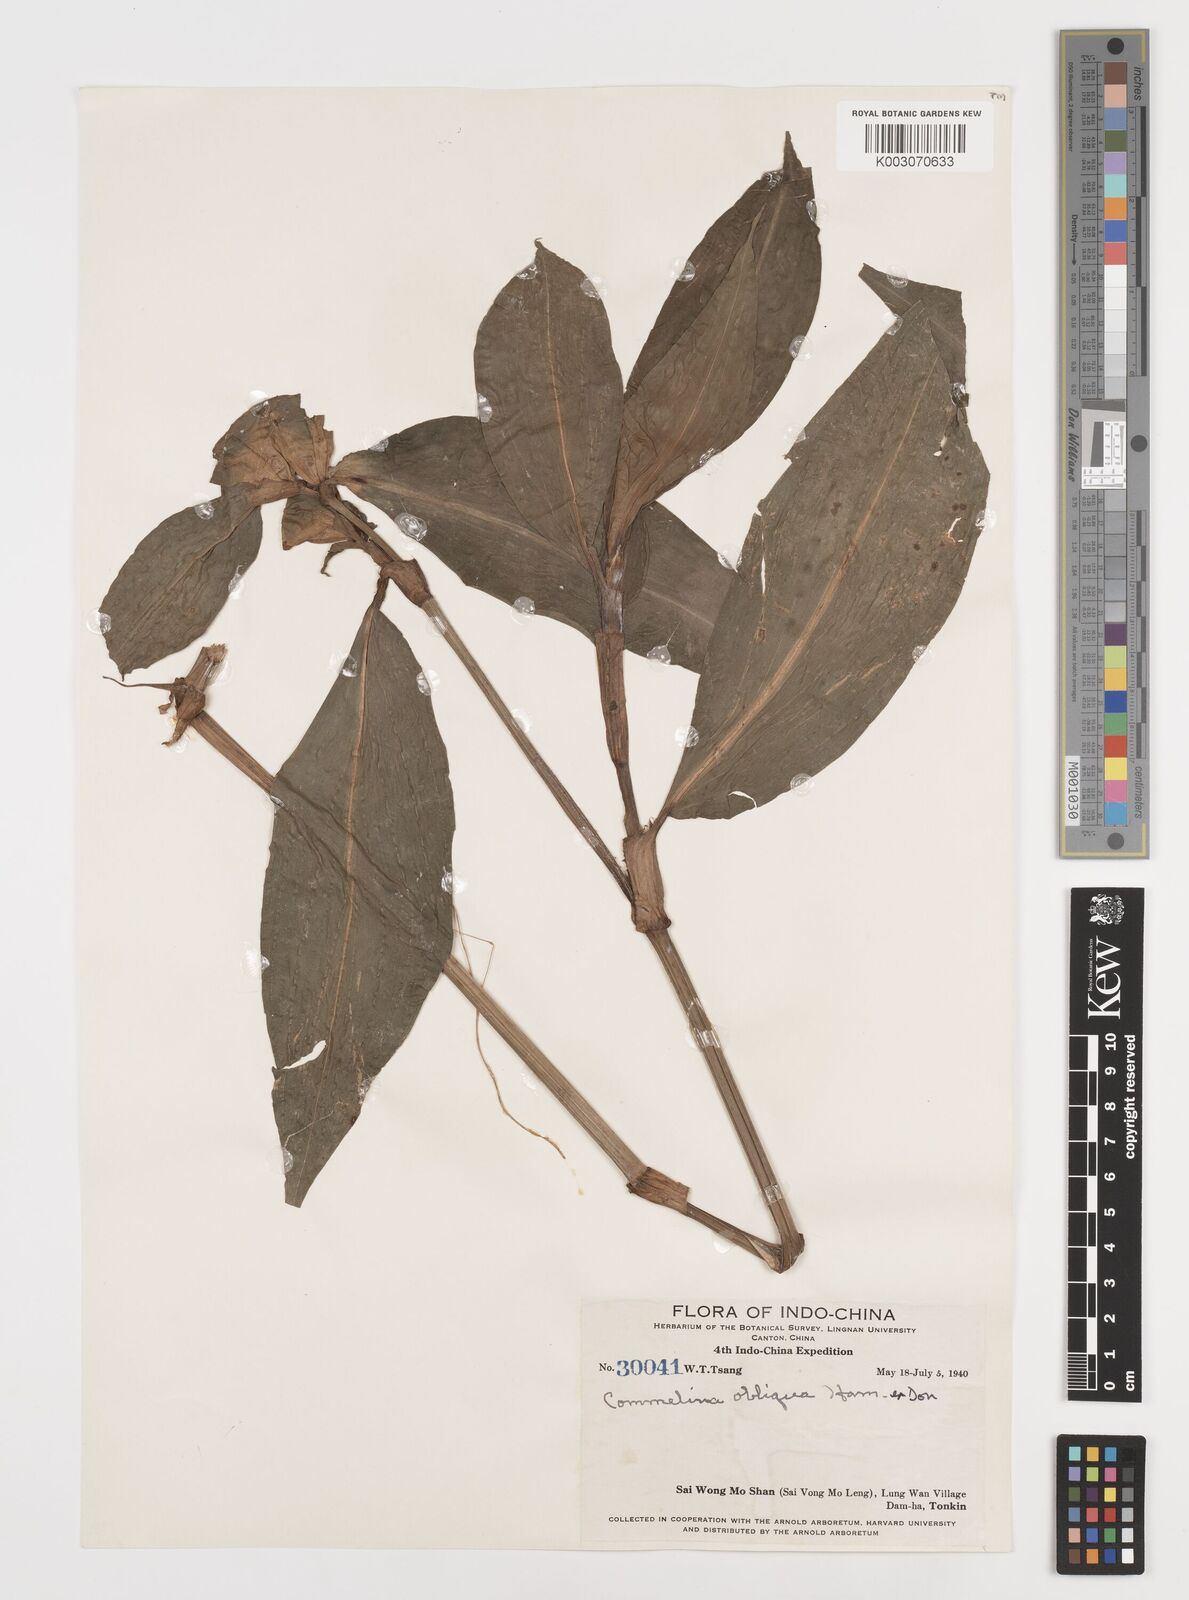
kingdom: Plantae
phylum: Tracheophyta
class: Liliopsida
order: Commelinales
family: Commelinaceae
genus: Commelina
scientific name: Commelina paludosa
